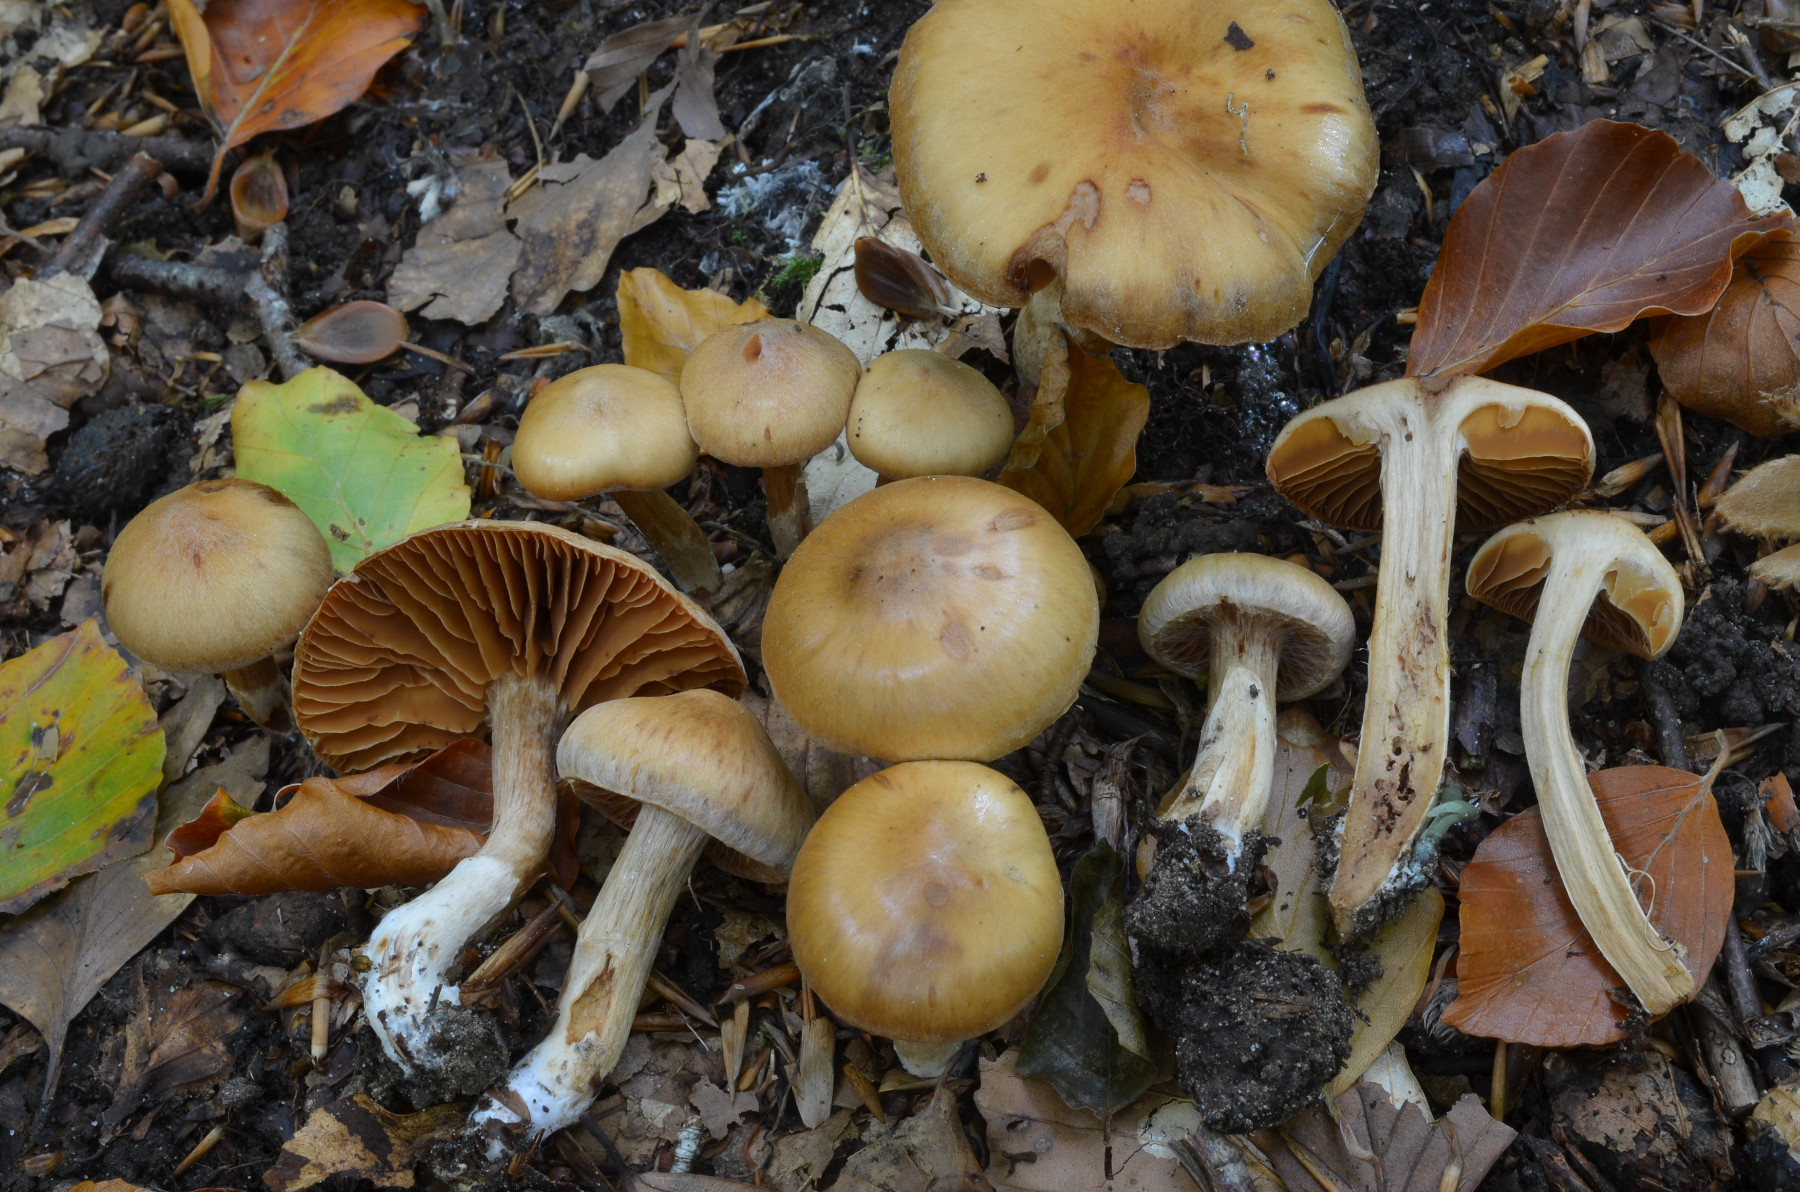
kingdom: Fungi
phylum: Basidiomycota
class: Agaricomycetes
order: Agaricales
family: Cortinariaceae
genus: Cortinarius
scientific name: Cortinarius luridus
